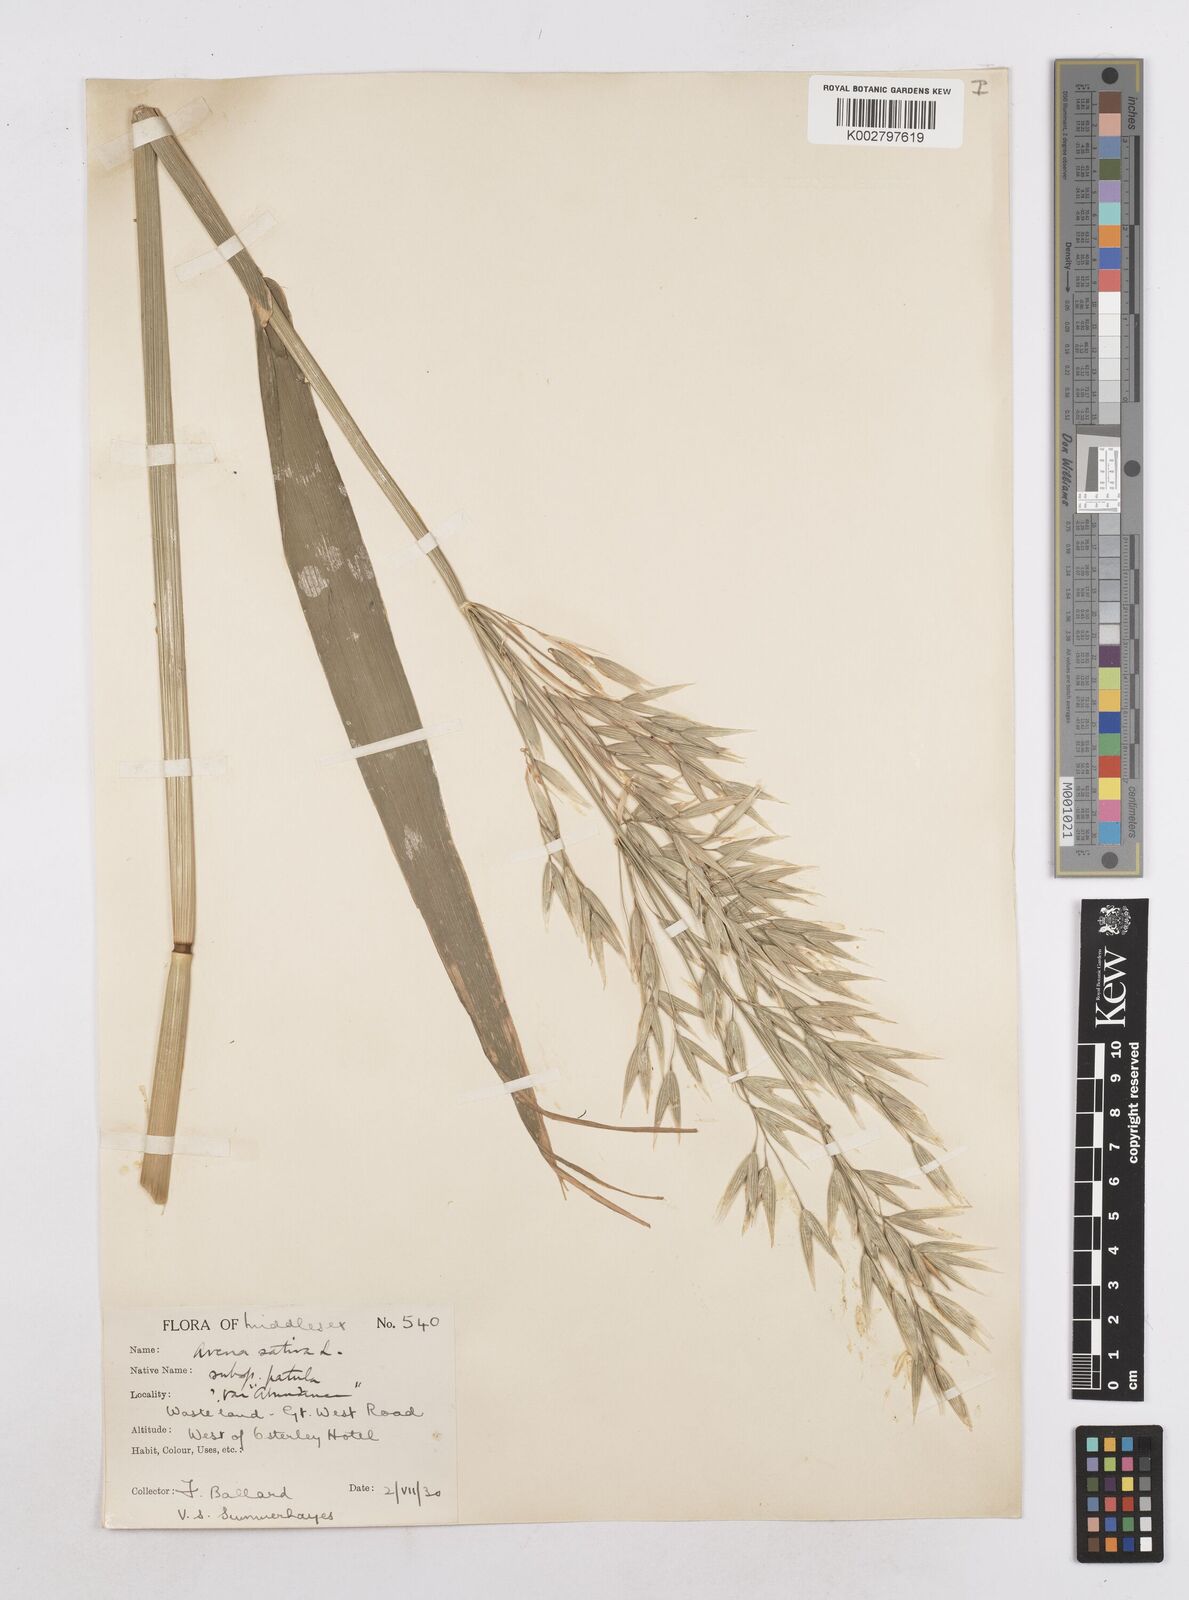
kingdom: Plantae
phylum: Tracheophyta
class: Liliopsida
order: Poales
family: Poaceae
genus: Avena
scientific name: Avena sativa
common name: Oat
